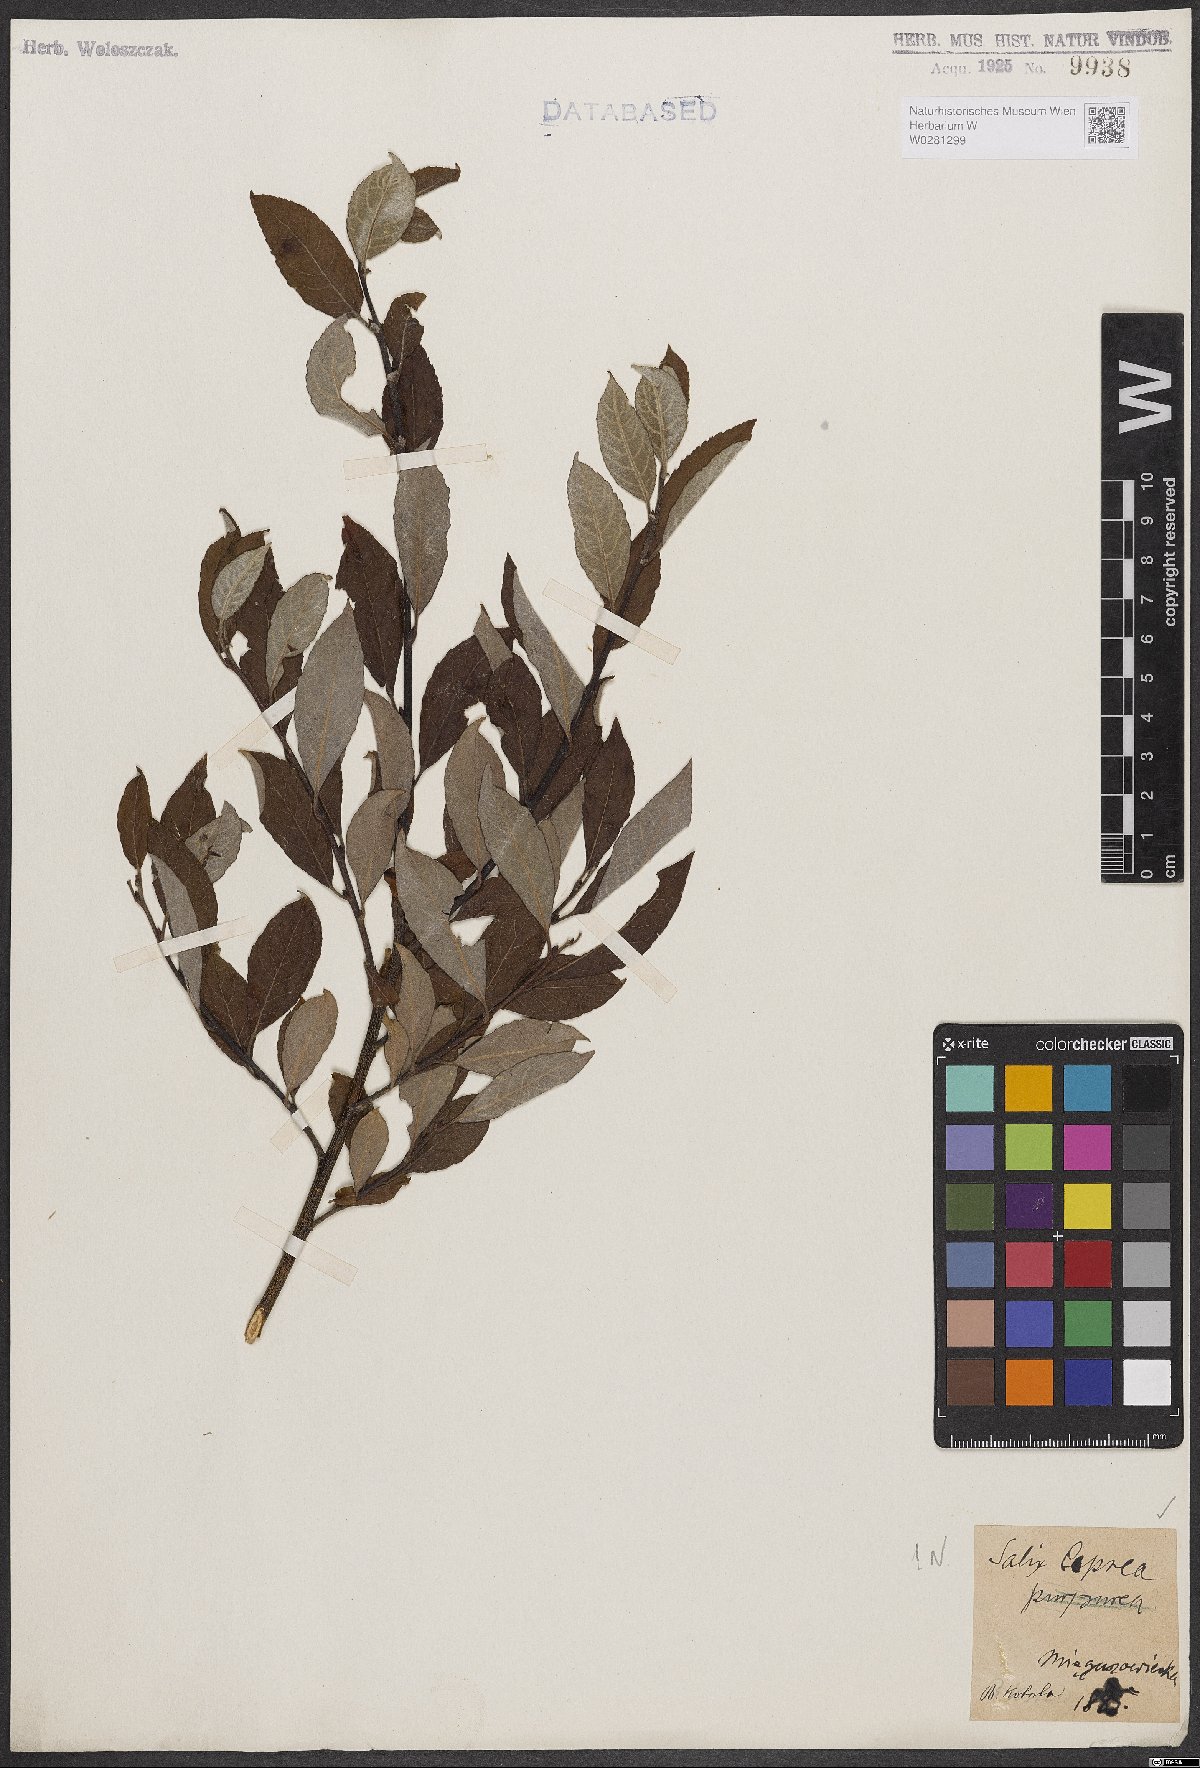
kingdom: Plantae
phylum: Tracheophyta
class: Magnoliopsida
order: Malpighiales
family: Salicaceae
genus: Salix
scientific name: Salix caprea
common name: Goat willow
